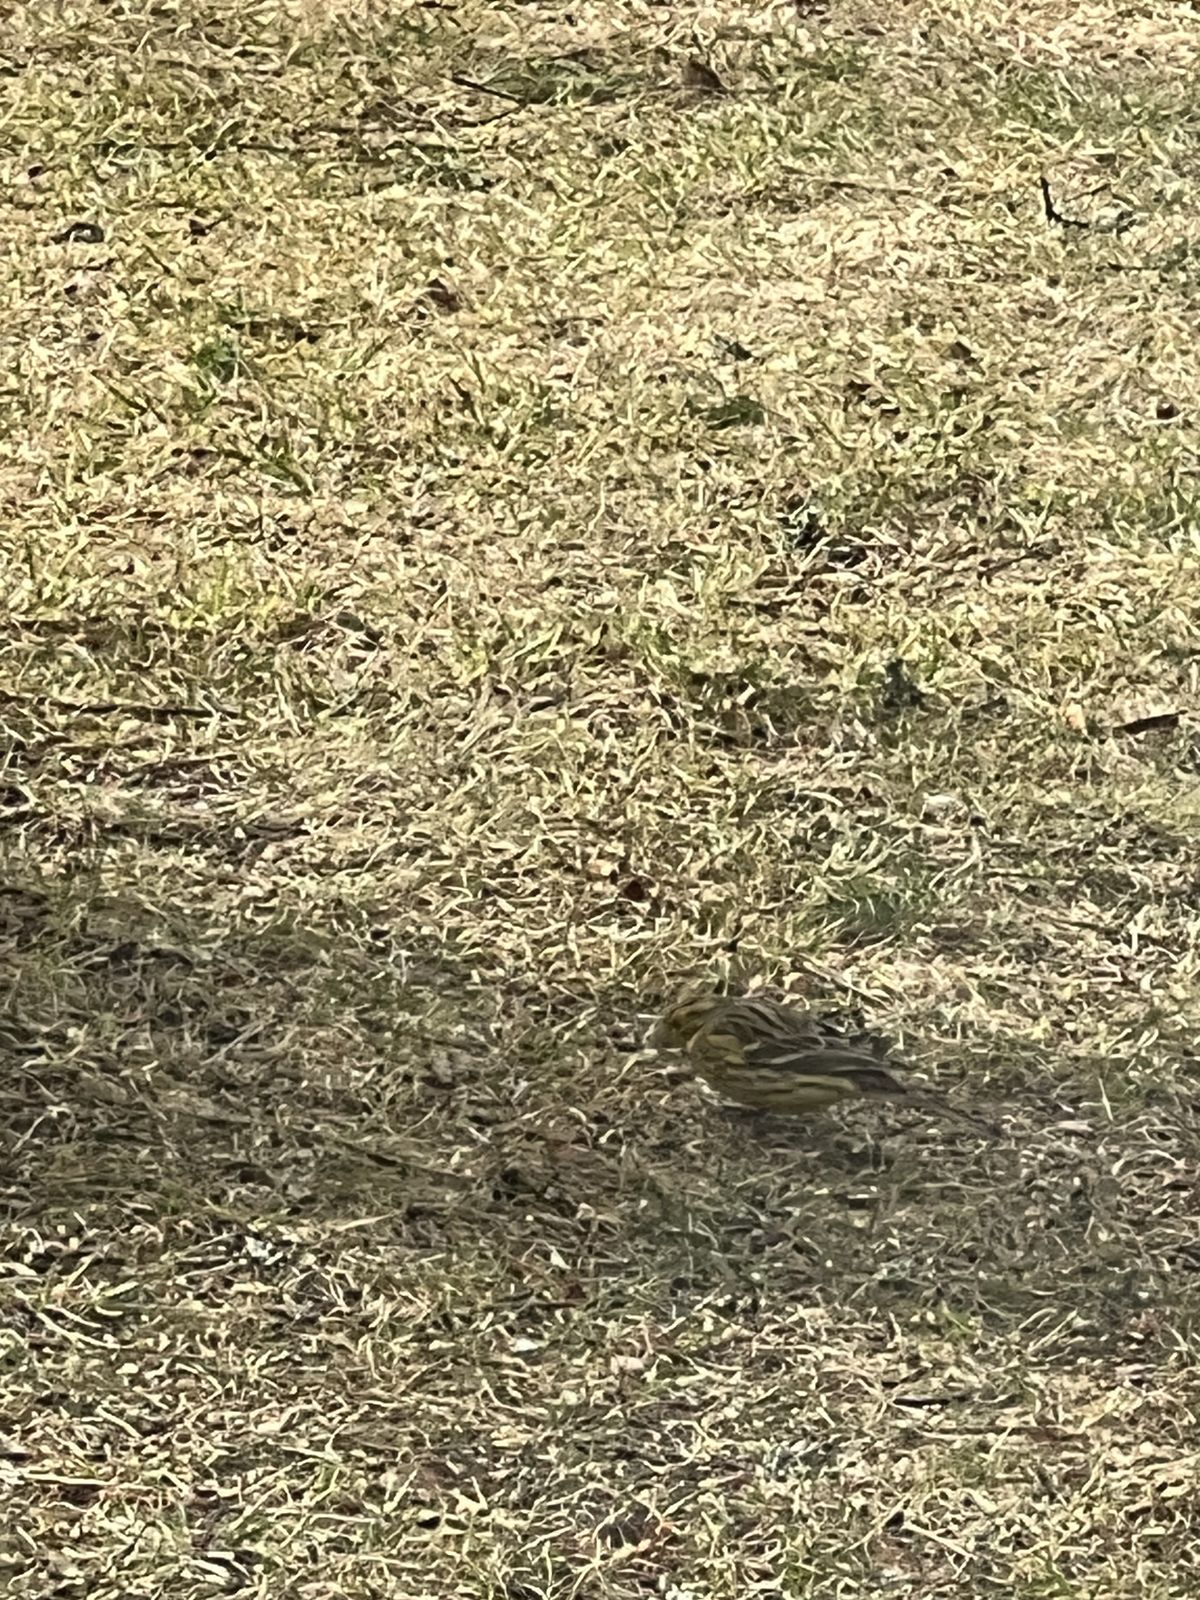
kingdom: Animalia
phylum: Chordata
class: Aves
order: Passeriformes
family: Fringillidae
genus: Fringilla
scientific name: Fringilla coelebs
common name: Common chaffinch
